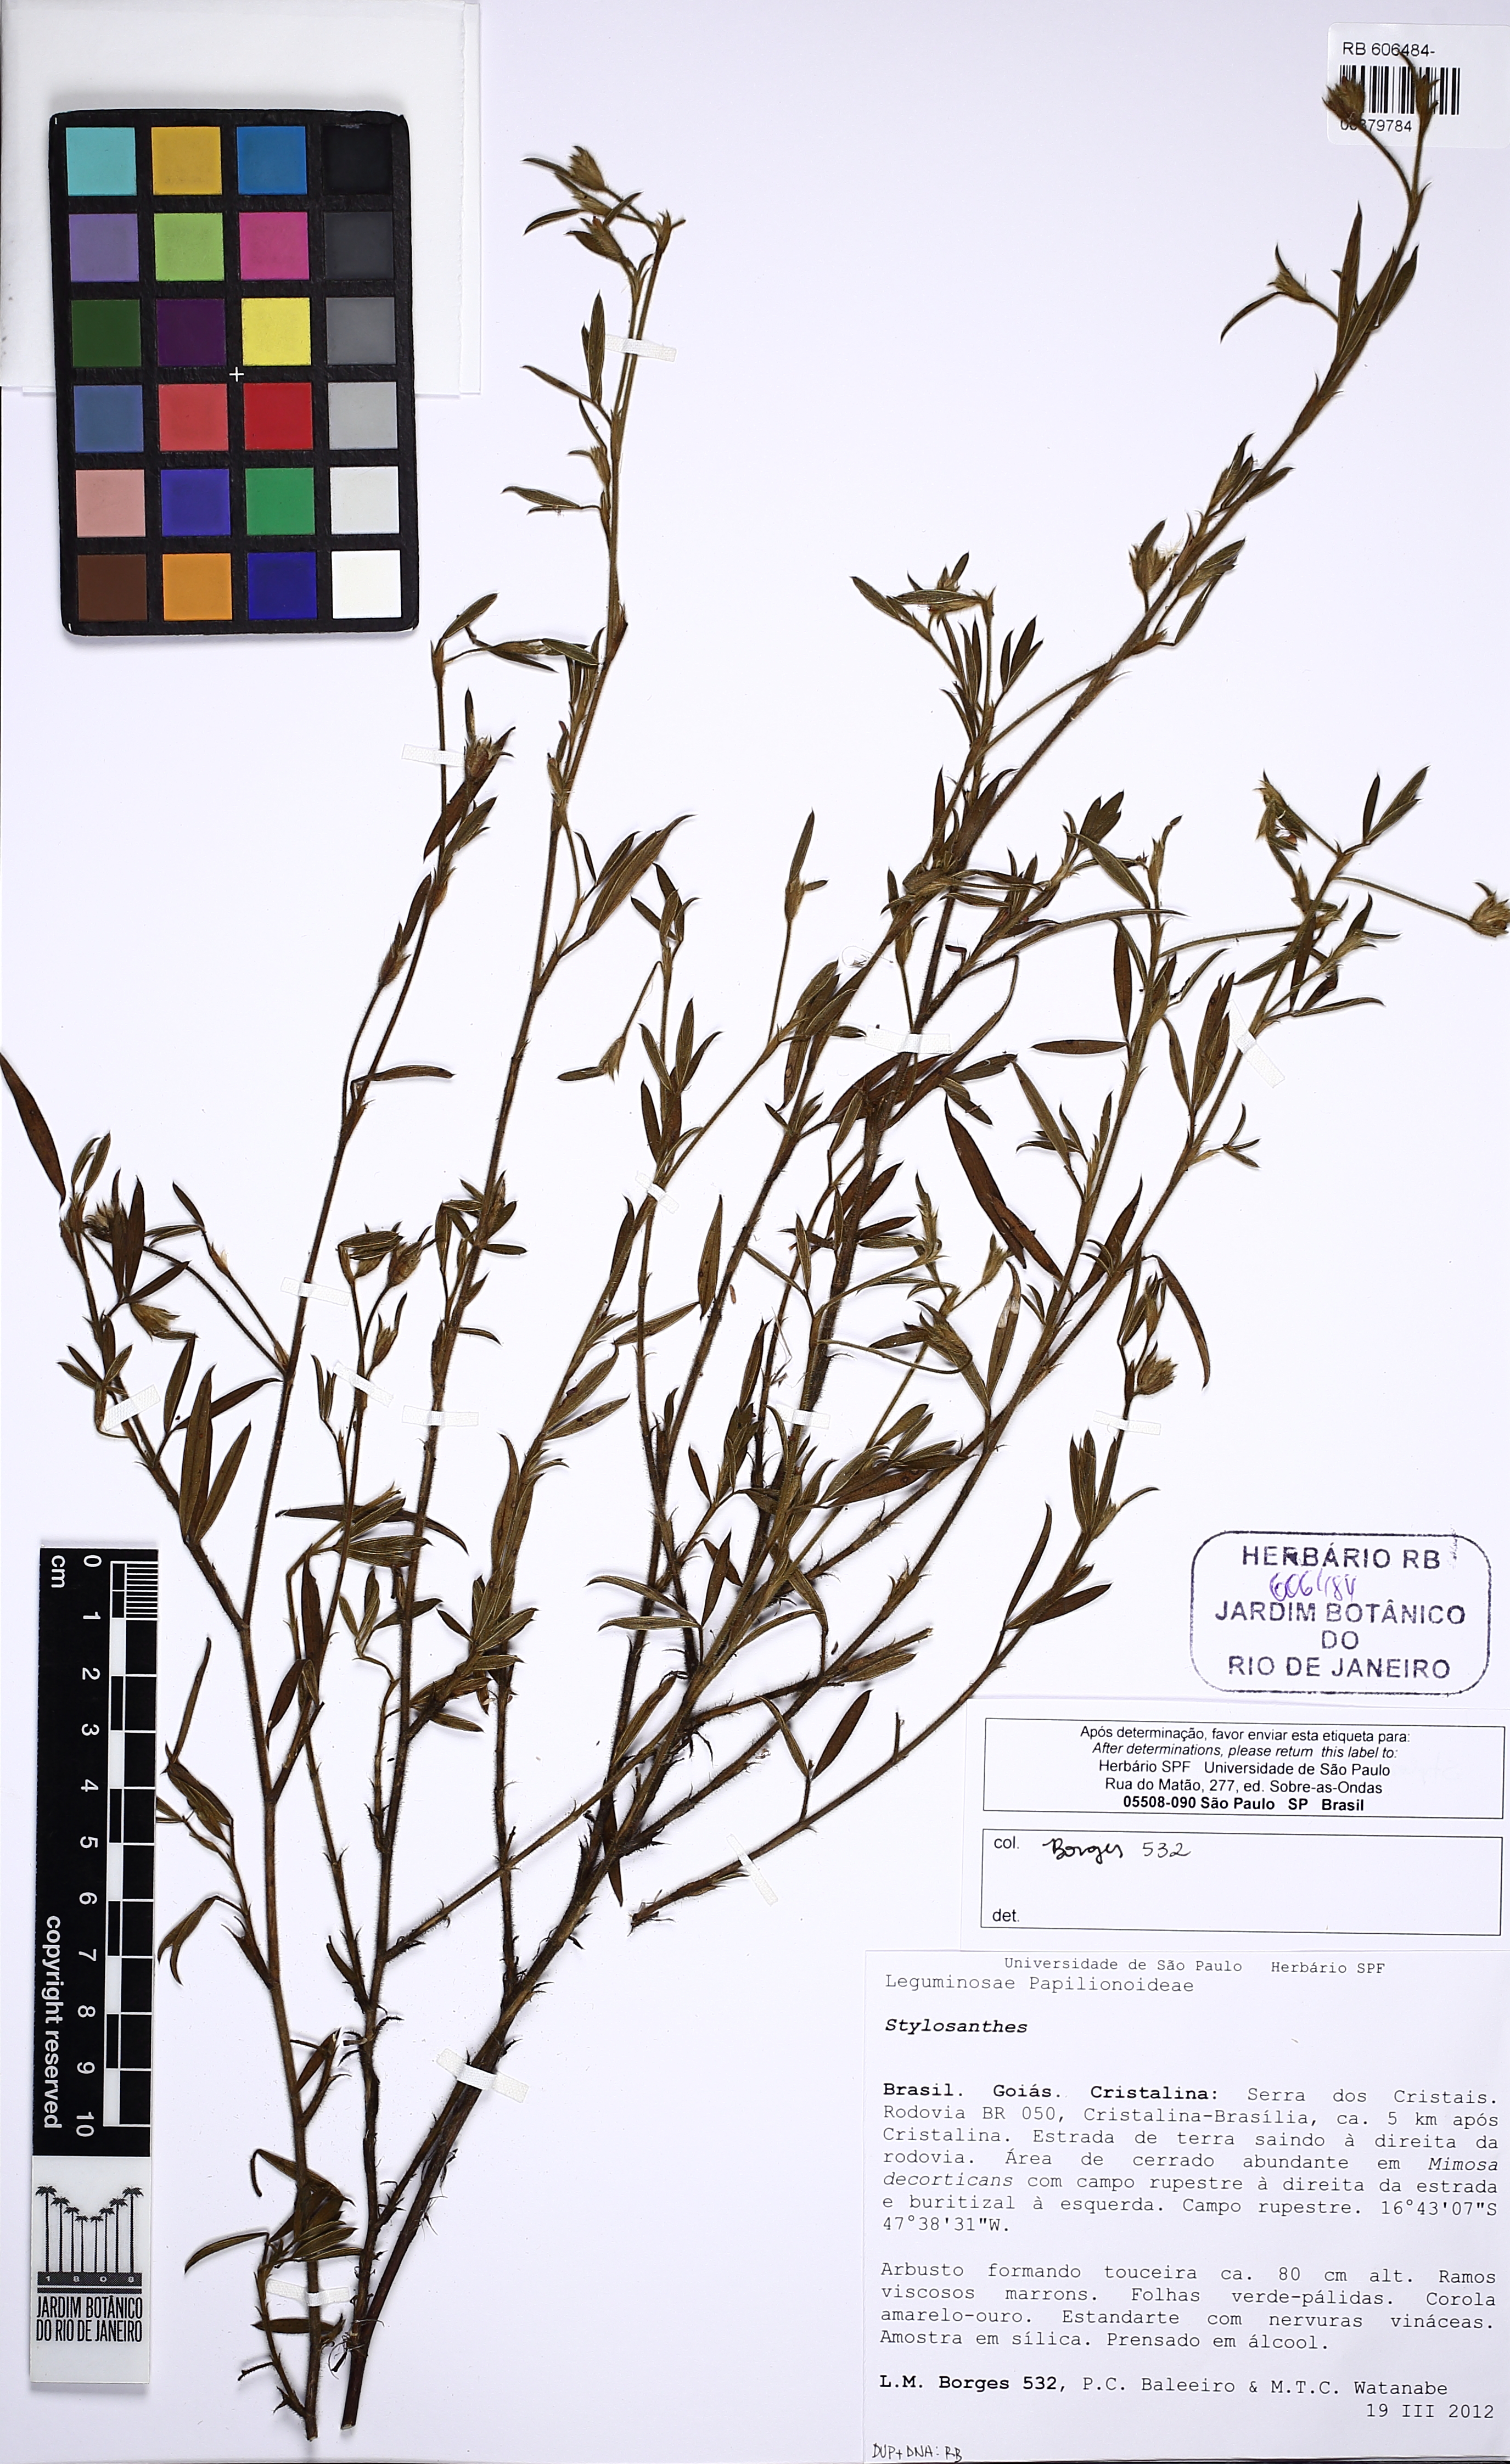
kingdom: Plantae
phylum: Tracheophyta
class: Magnoliopsida
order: Fabales
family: Fabaceae
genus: Stylosanthes
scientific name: Stylosanthes
